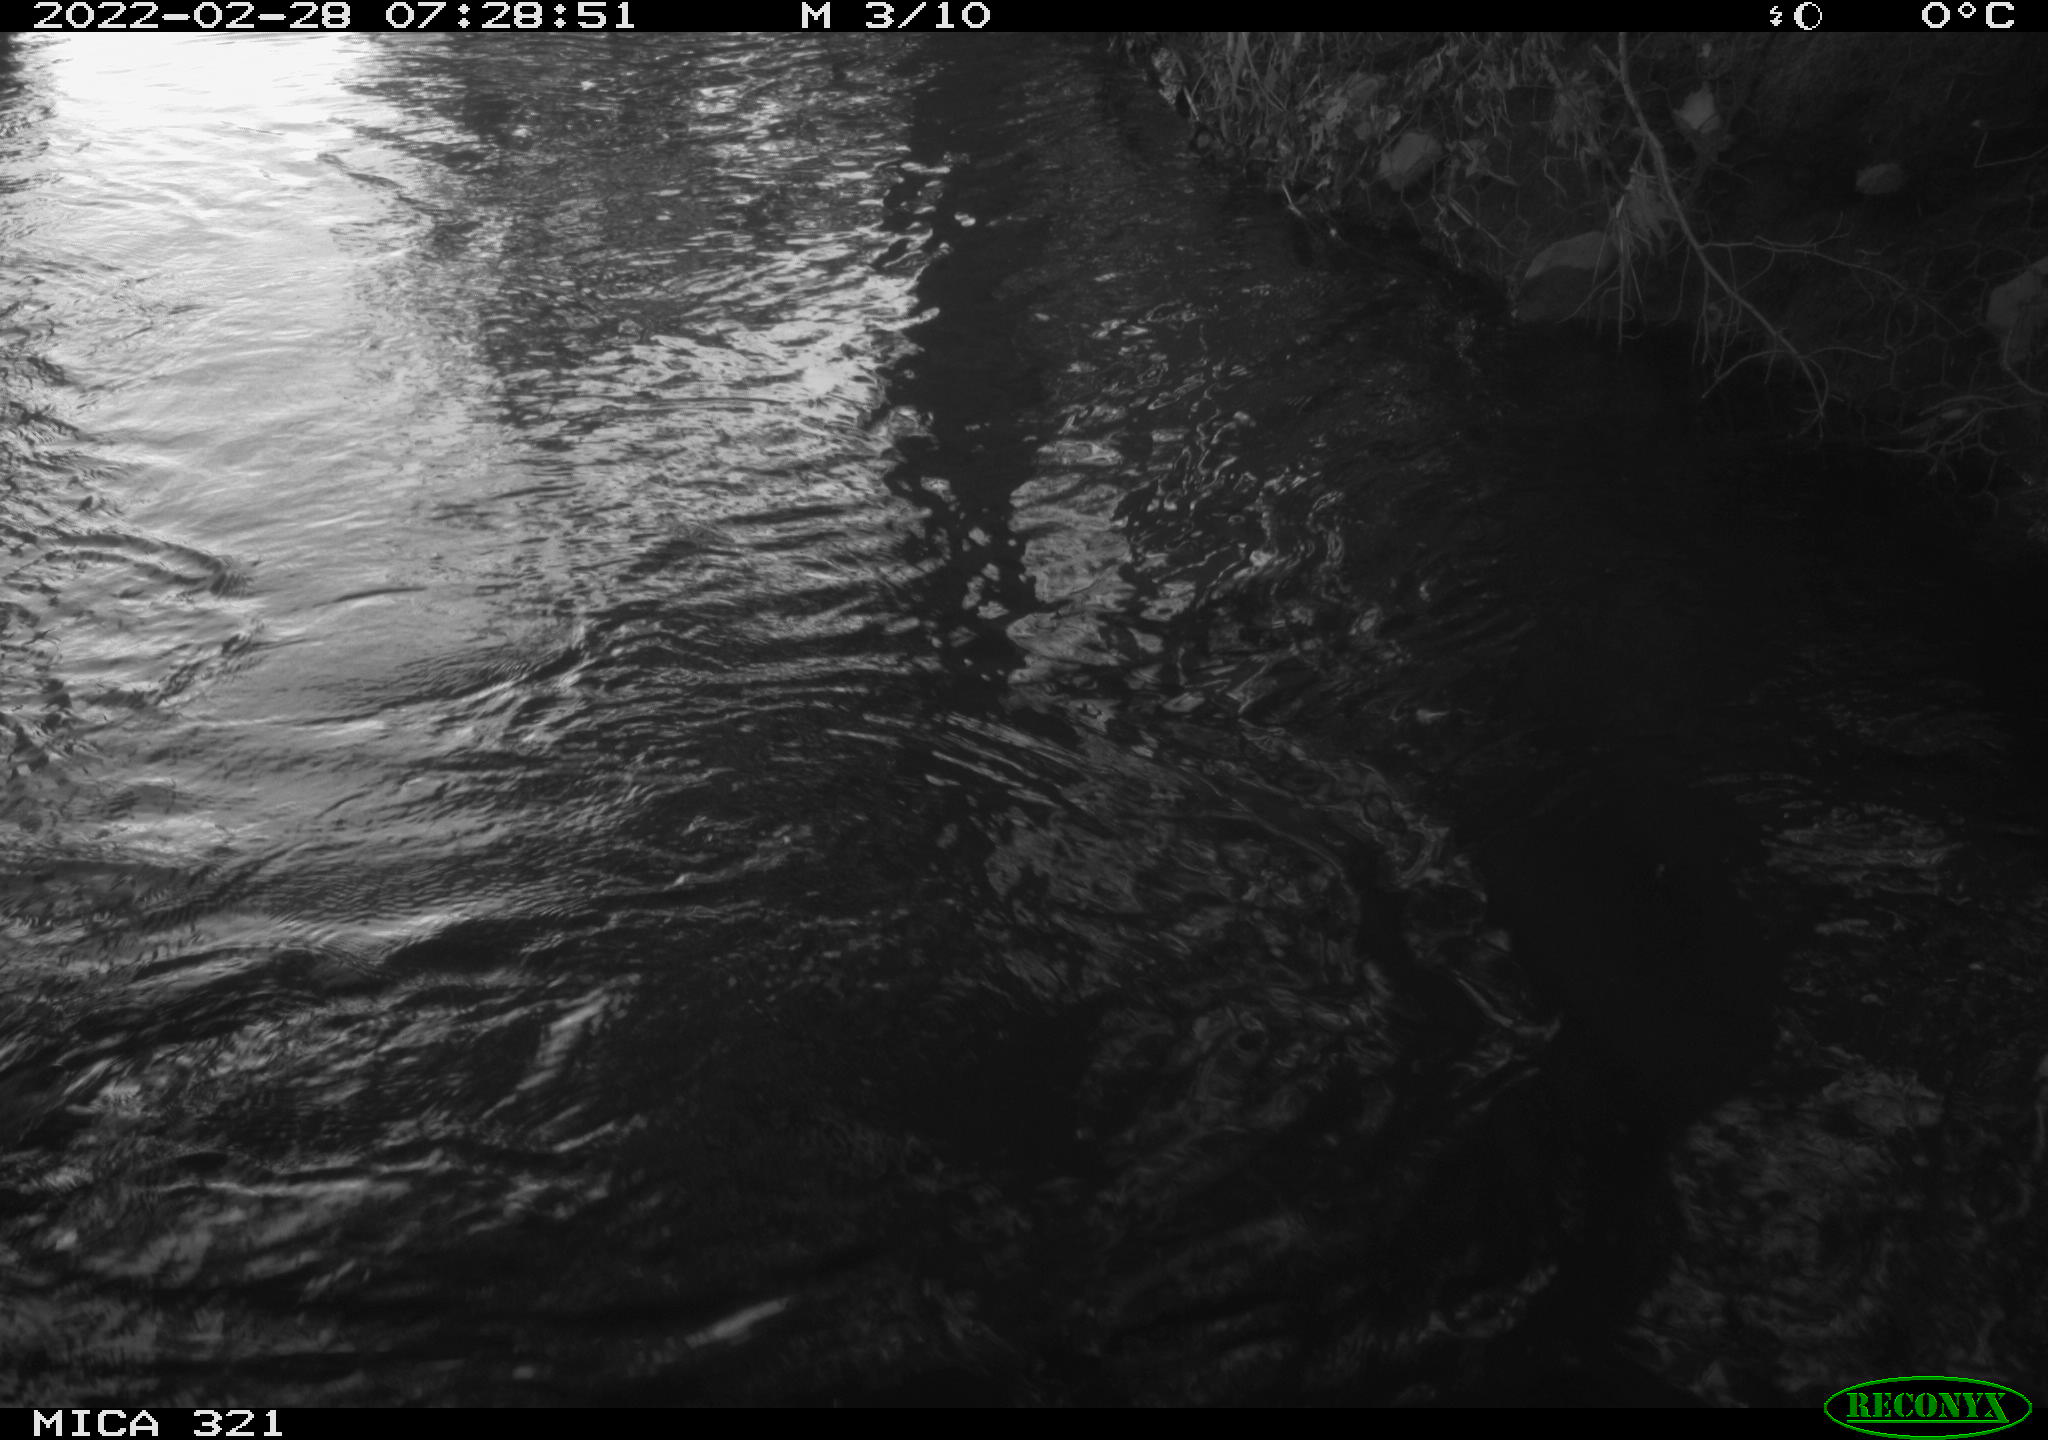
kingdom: Animalia
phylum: Chordata
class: Aves
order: Suliformes
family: Phalacrocoracidae
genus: Phalacrocorax
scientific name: Phalacrocorax carbo
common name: Great cormorant
